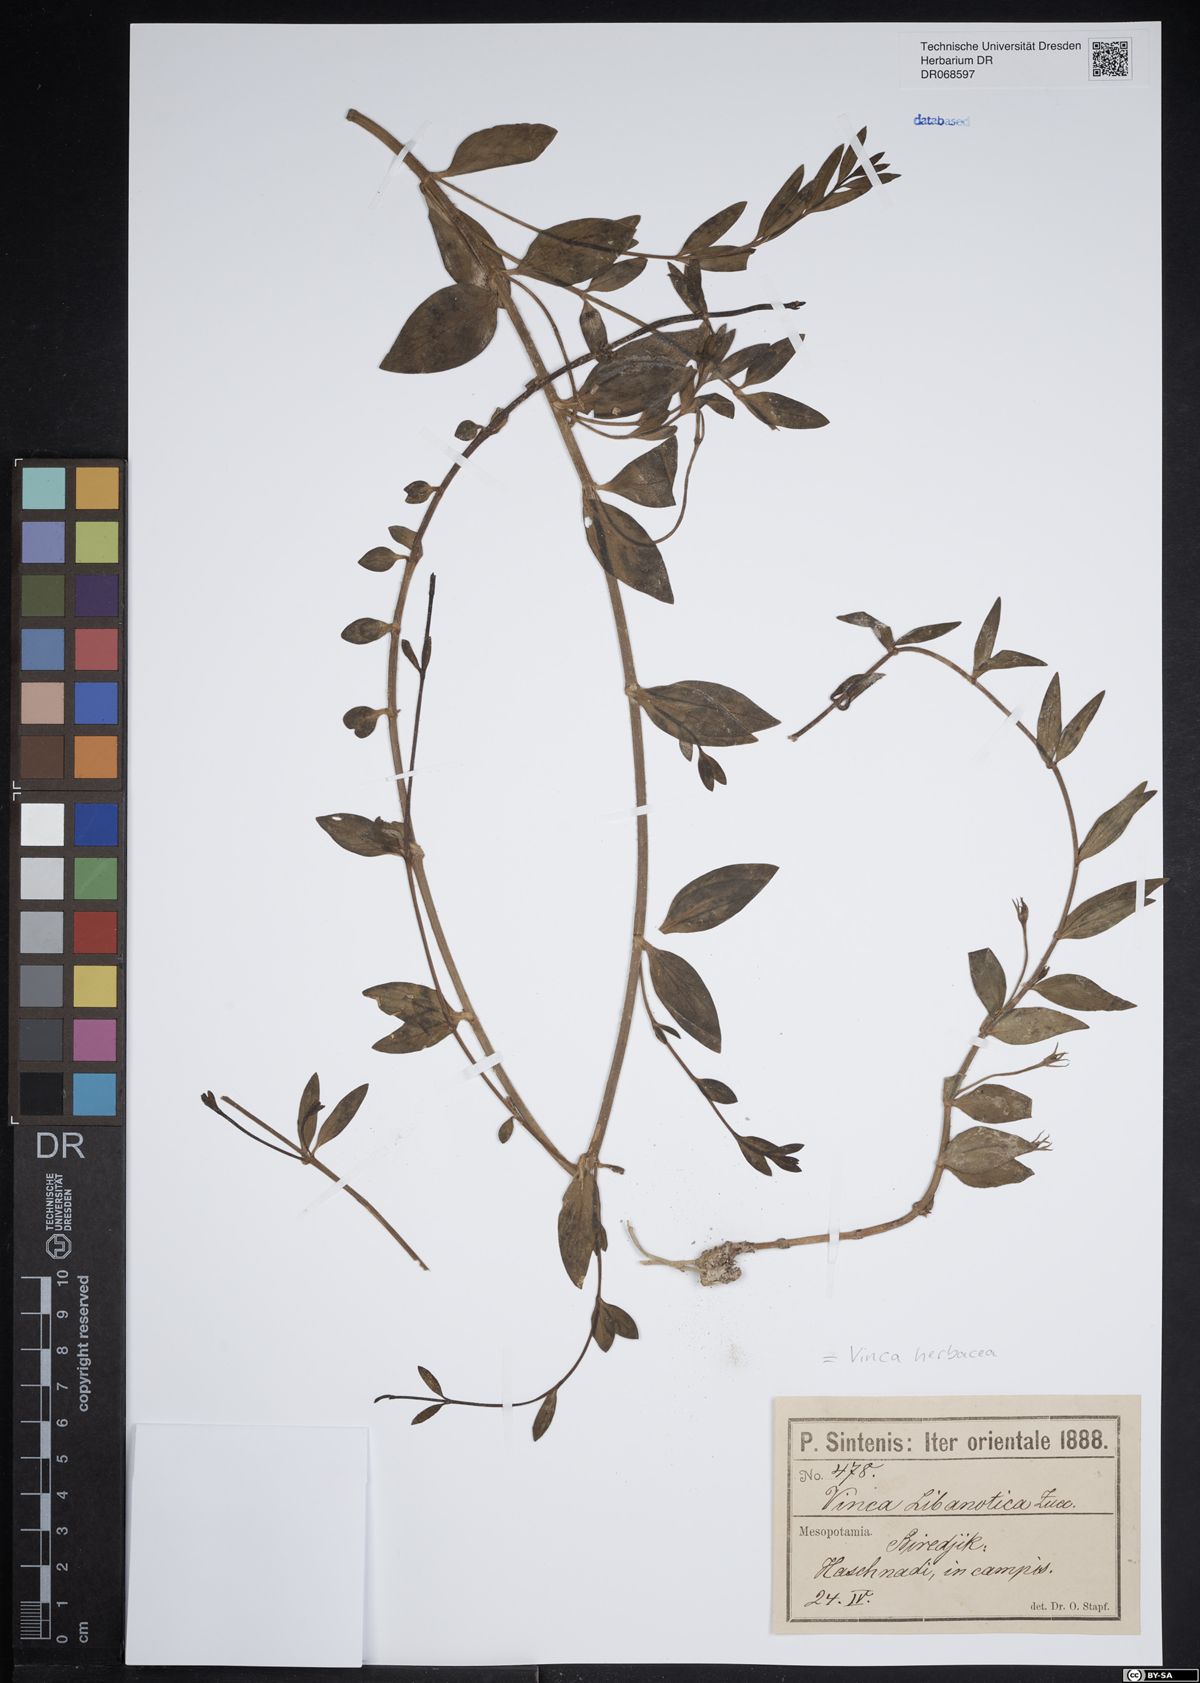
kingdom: Plantae
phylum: Tracheophyta
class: Magnoliopsida
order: Gentianales
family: Apocynaceae
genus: Vinca
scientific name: Vinca herbacea
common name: Herbaceous periwinkle
